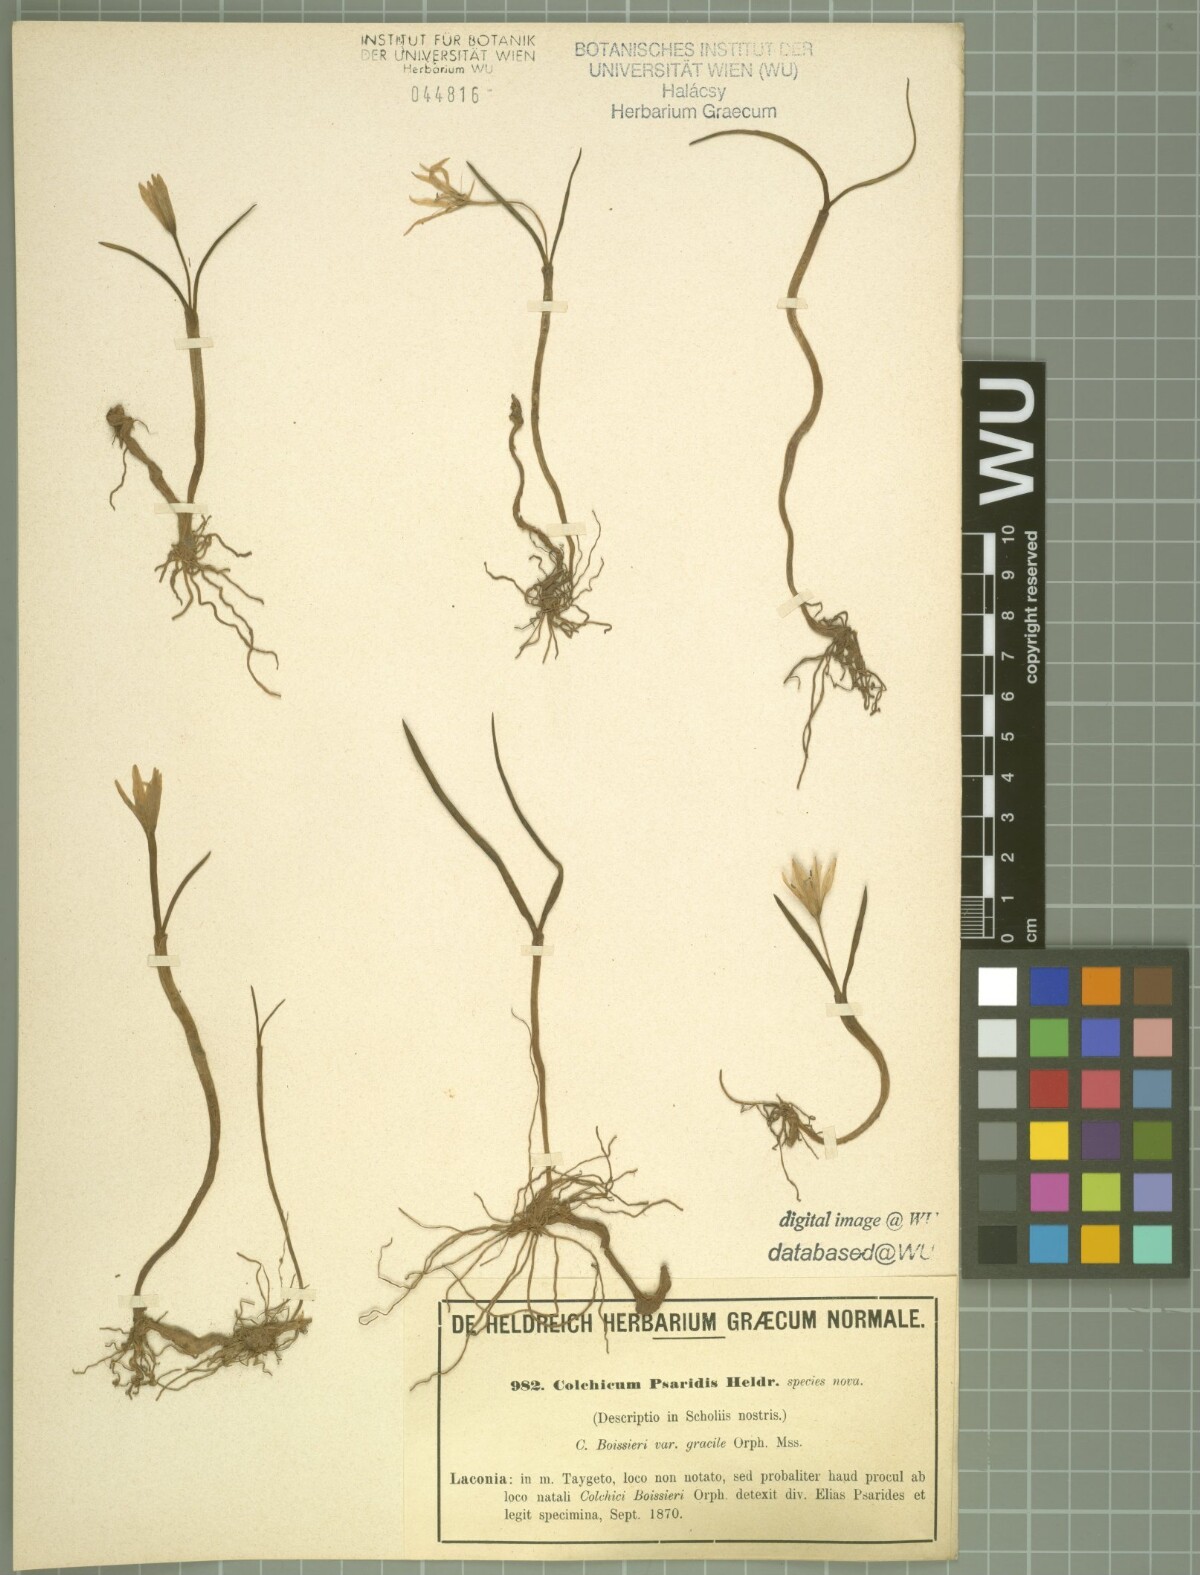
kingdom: Plantae
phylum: Tracheophyta
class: Liliopsida
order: Liliales
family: Colchicaceae
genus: Colchicum
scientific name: Colchicum zahnii
